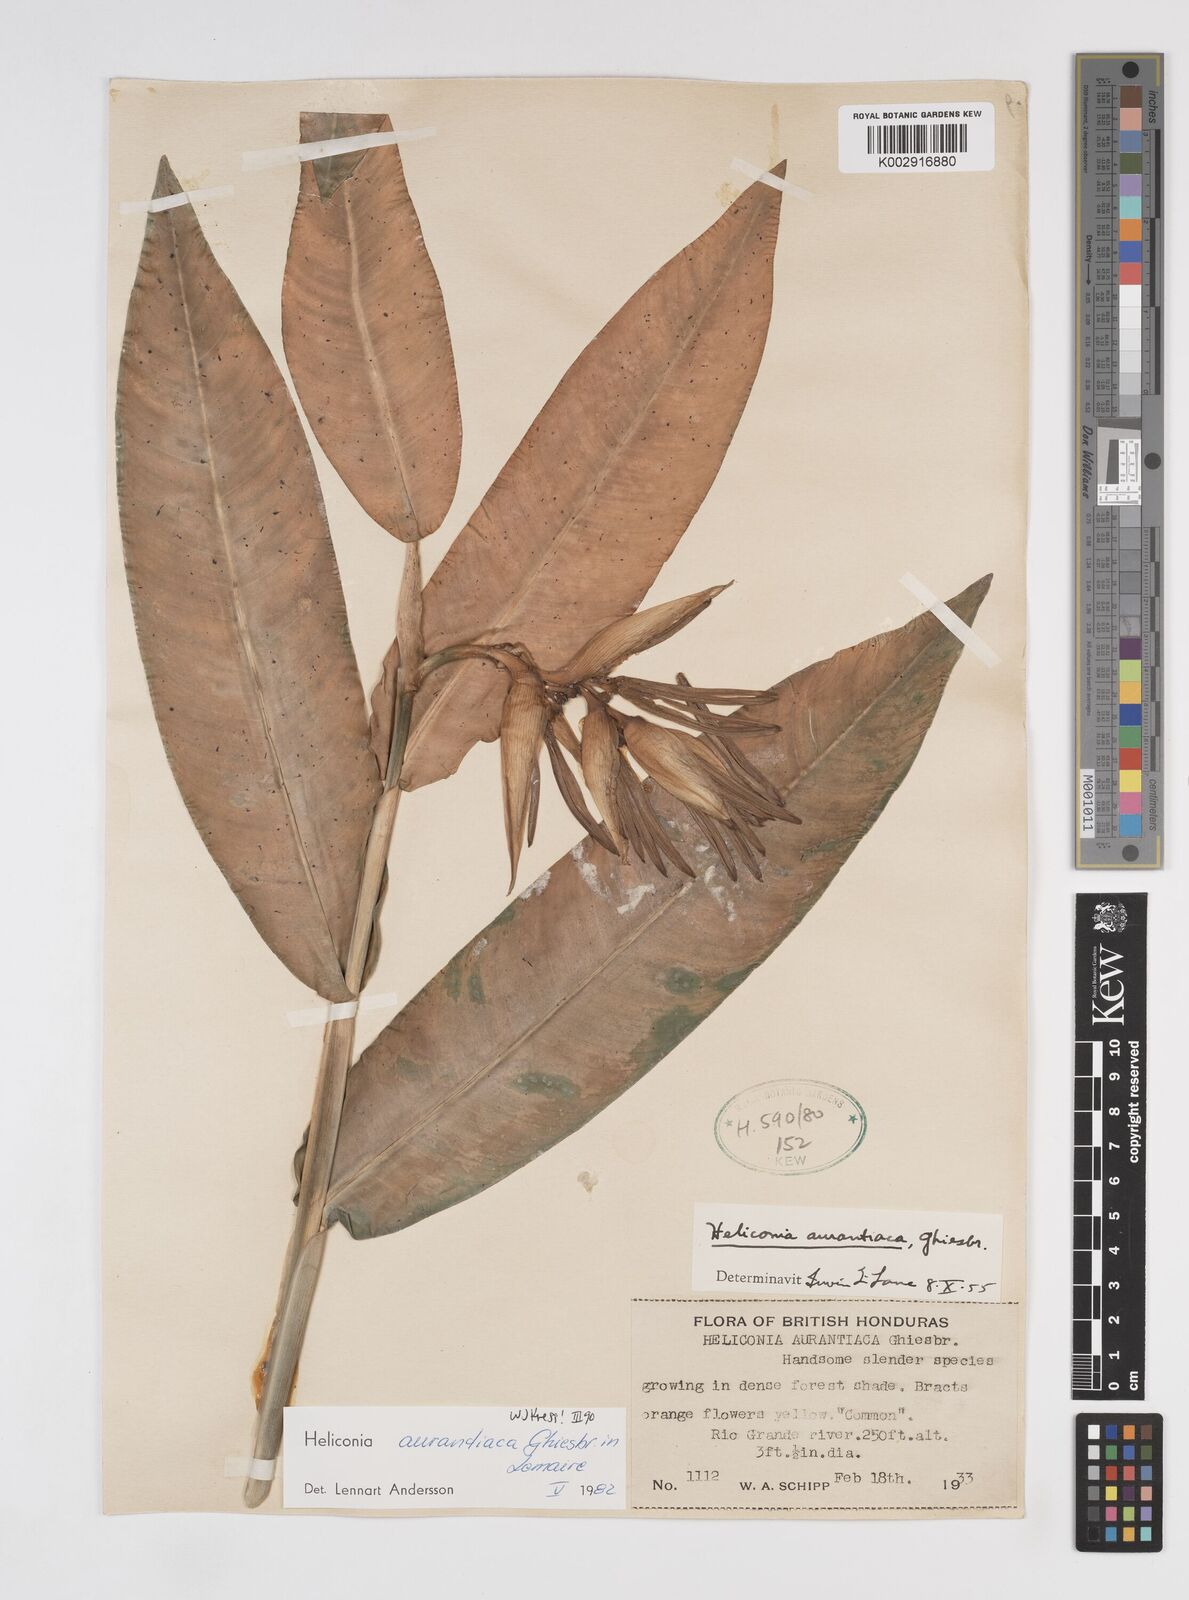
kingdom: Plantae
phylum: Tracheophyta
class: Liliopsida
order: Zingiberales
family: Heliconiaceae
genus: Heliconia
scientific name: Heliconia aurantiaca
